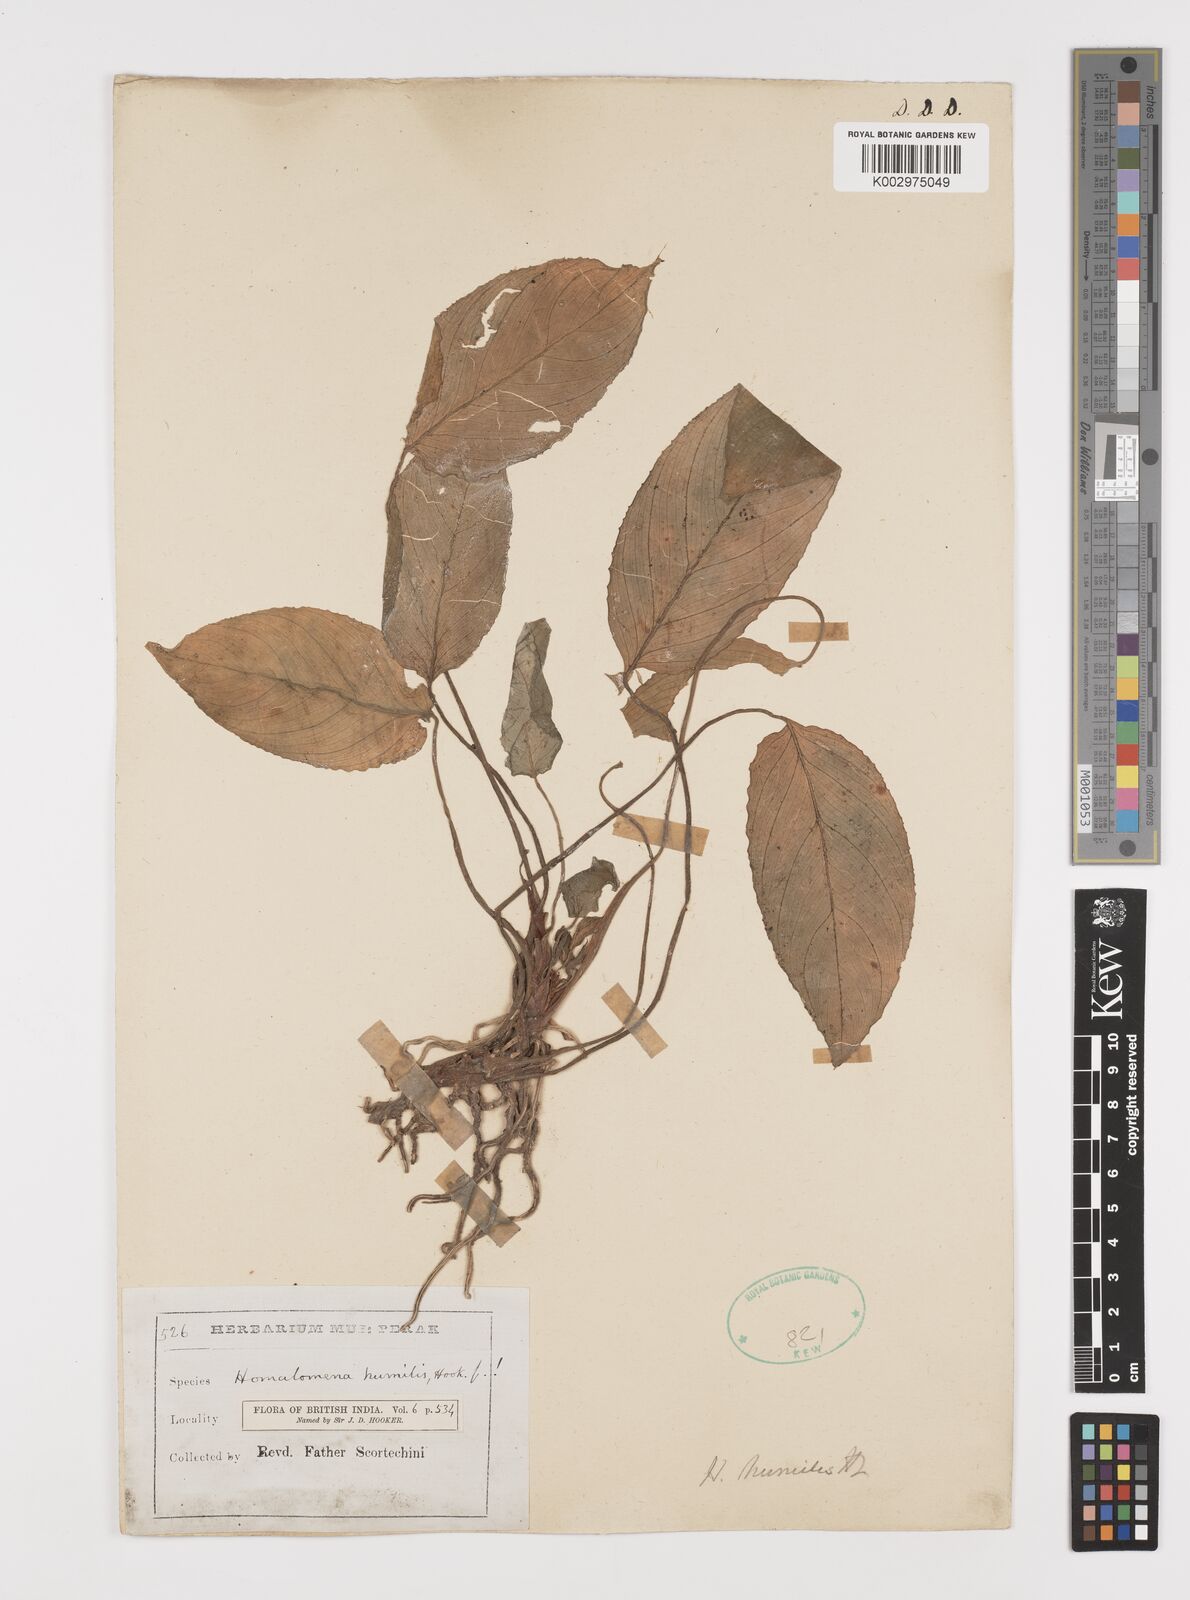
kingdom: Plantae
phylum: Tracheophyta
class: Liliopsida
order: Alismatales
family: Araceae
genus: Homalomena
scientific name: Homalomena humilis
